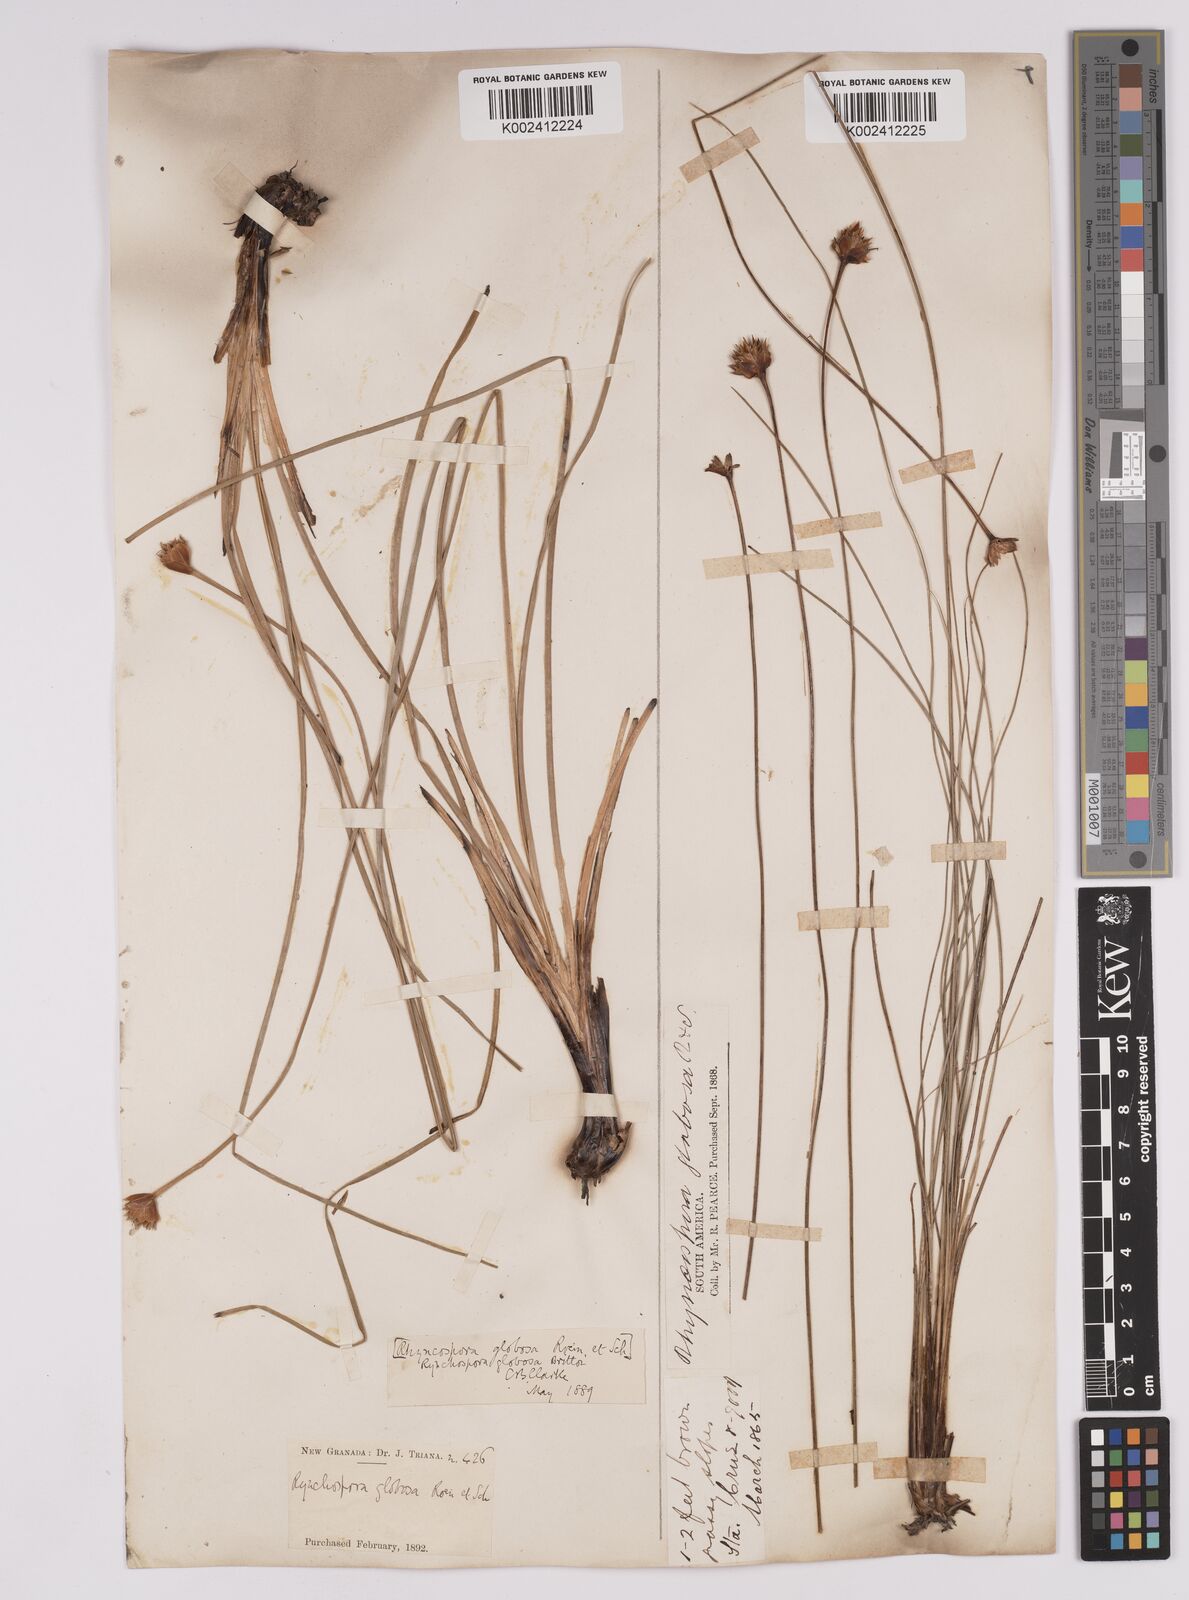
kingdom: Plantae
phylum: Tracheophyta
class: Liliopsida
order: Poales
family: Cyperaceae
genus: Rhynchospora
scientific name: Rhynchospora barbata
